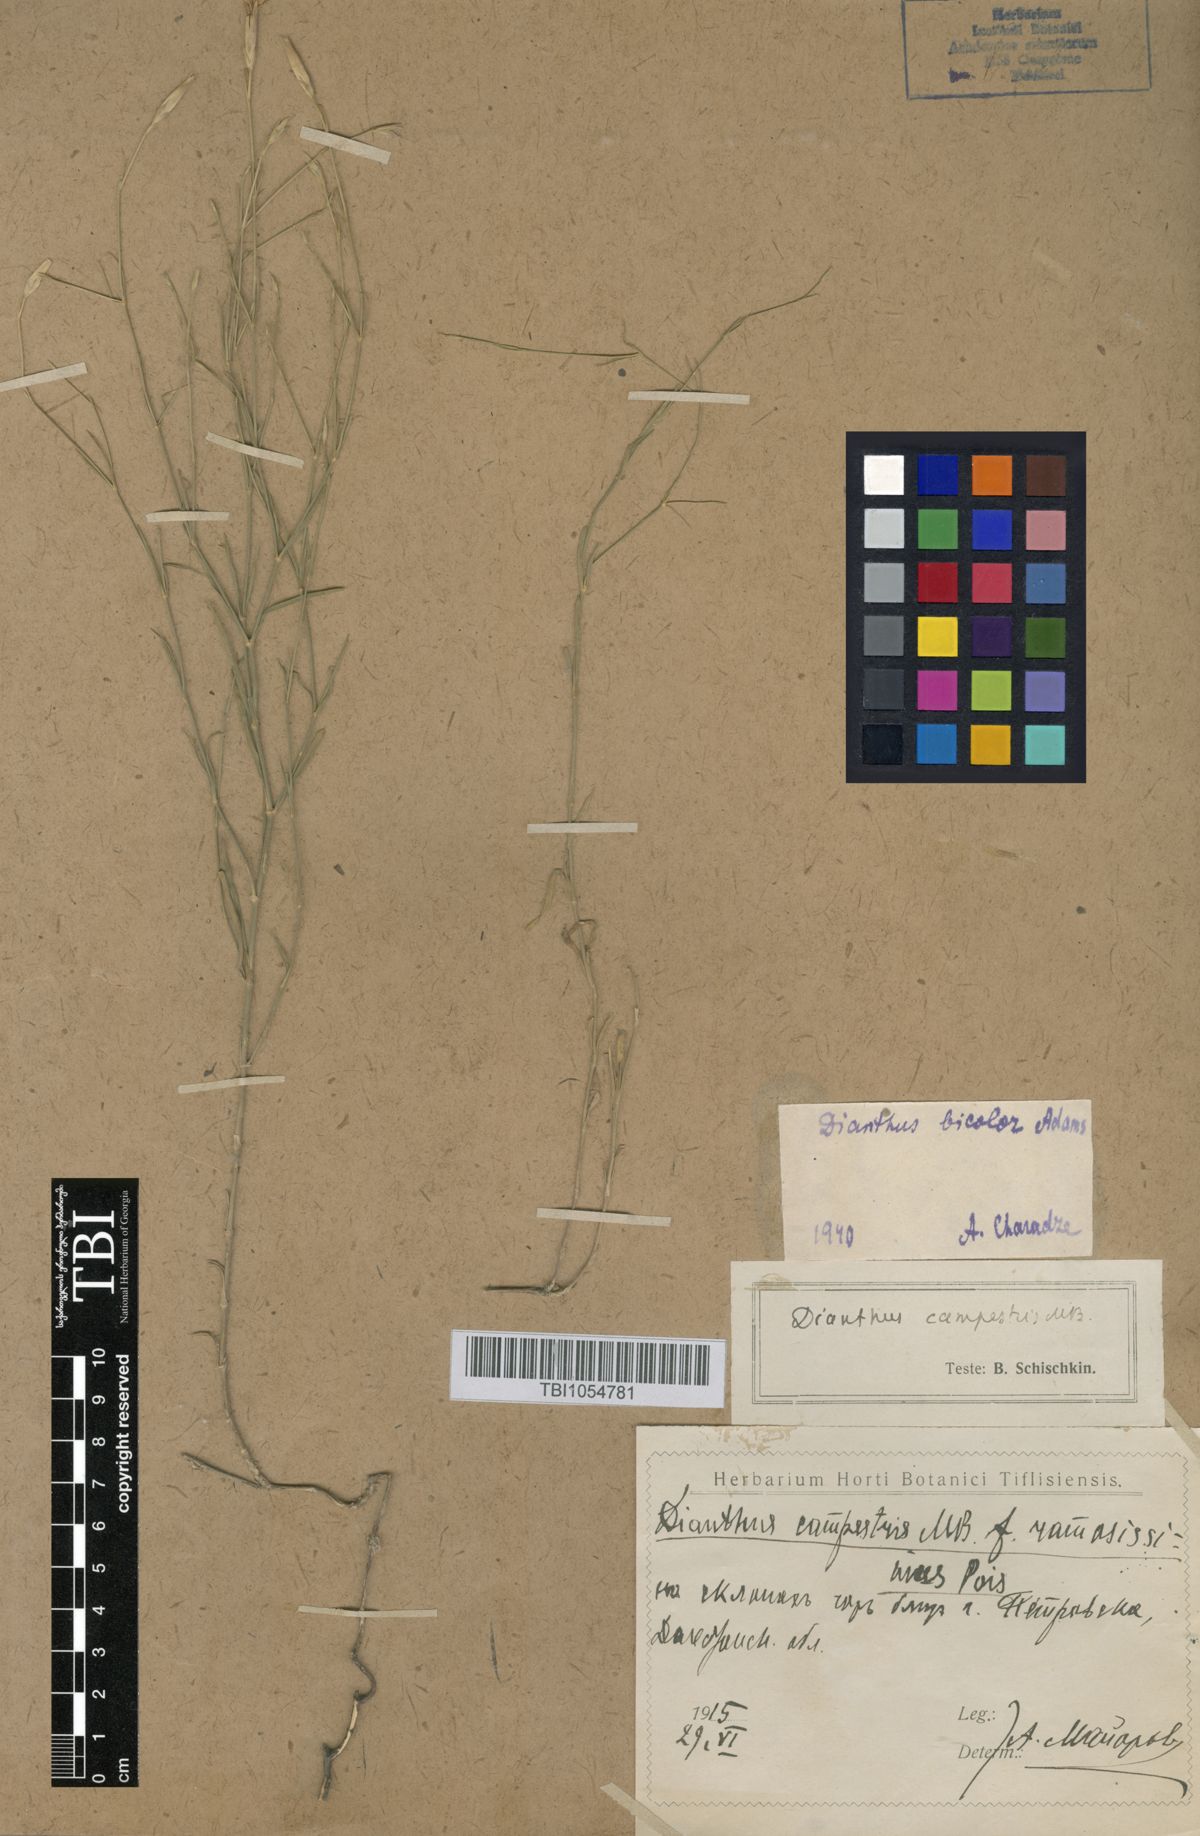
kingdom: Plantae
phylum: Tracheophyta
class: Magnoliopsida
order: Caryophyllales
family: Caryophyllaceae
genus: Dianthus
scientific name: Dianthus marschallii
